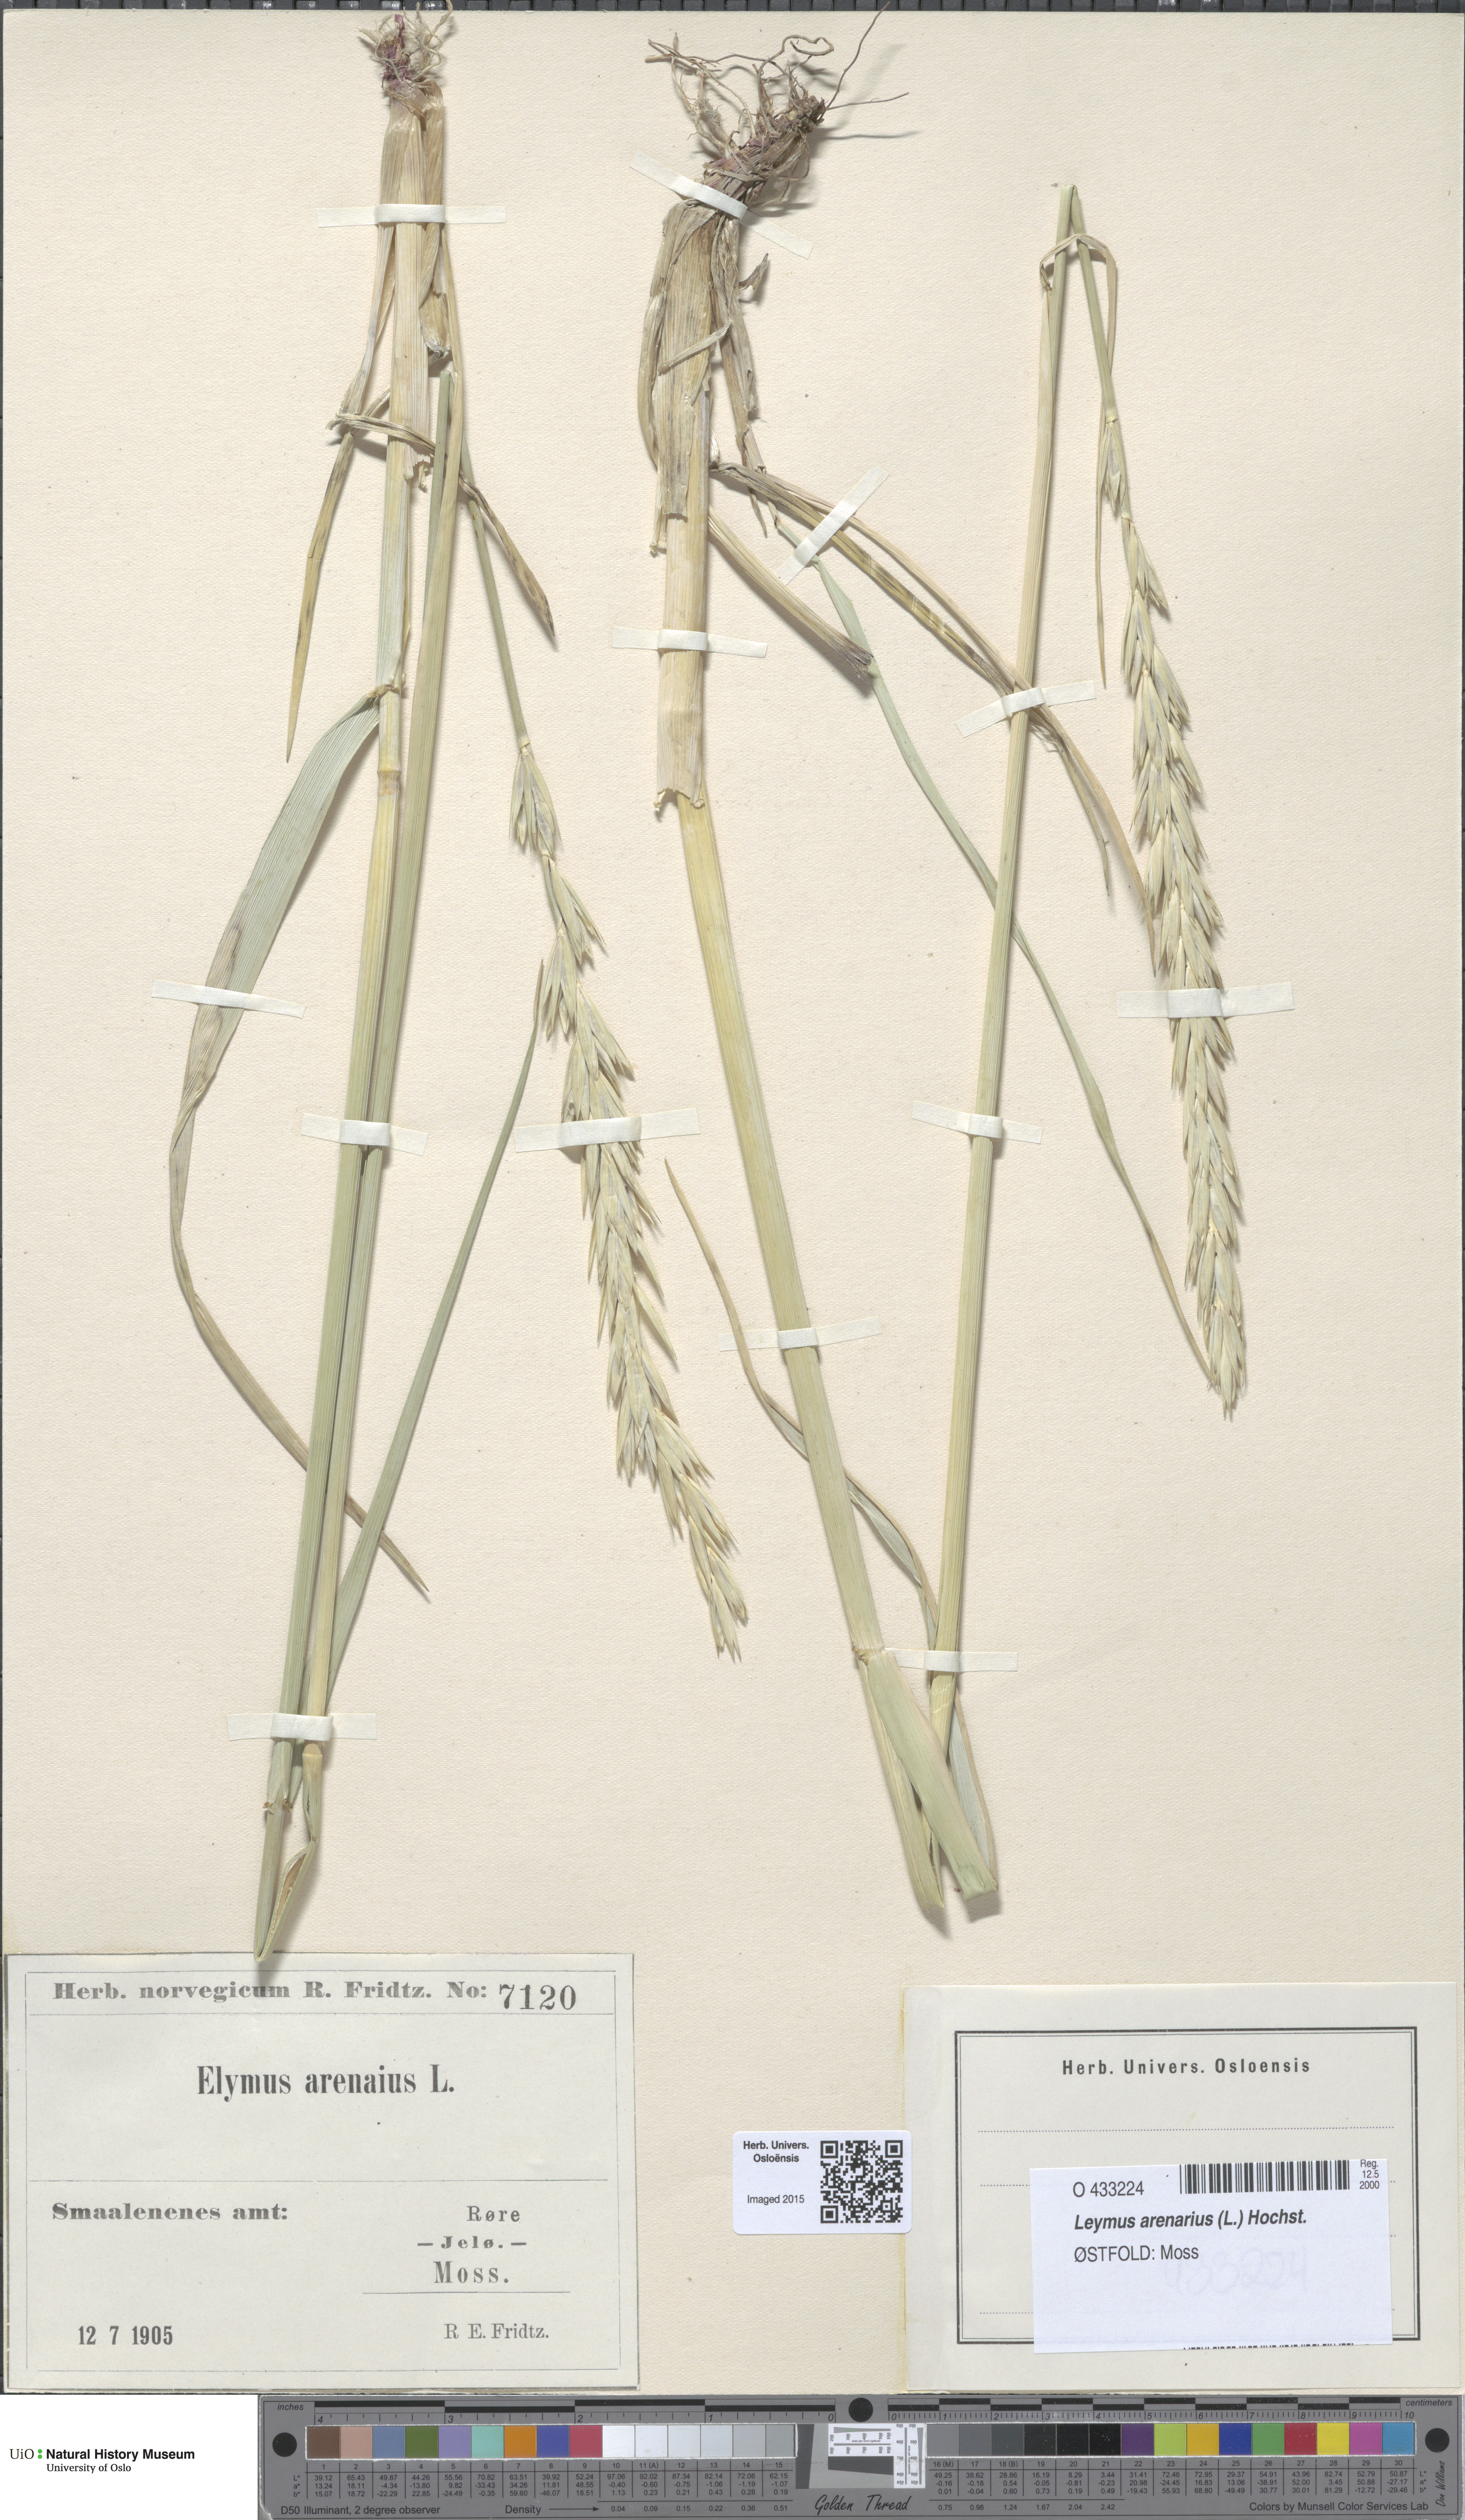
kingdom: Plantae
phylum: Tracheophyta
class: Liliopsida
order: Poales
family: Poaceae
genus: Leymus
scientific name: Leymus arenarius
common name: Lyme-grass
